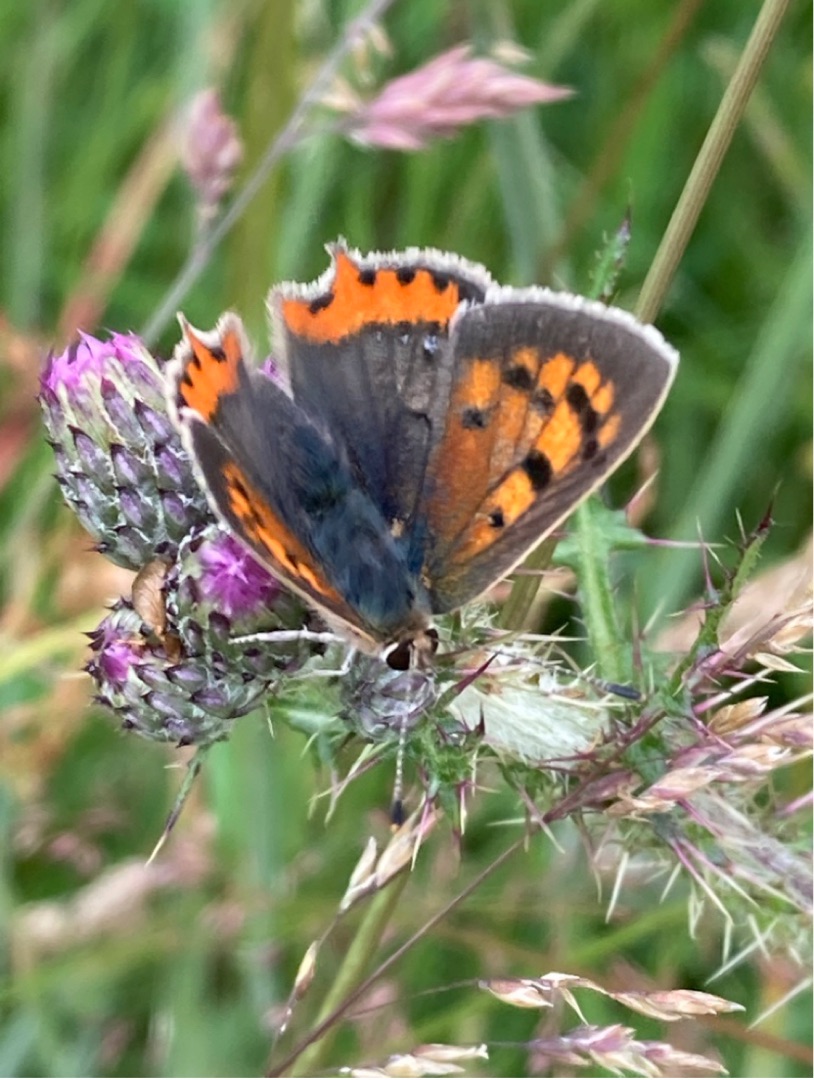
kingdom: Animalia
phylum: Arthropoda
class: Insecta
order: Lepidoptera
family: Lycaenidae
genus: Lycaena
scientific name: Lycaena phlaeas
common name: Lille ildfugl
